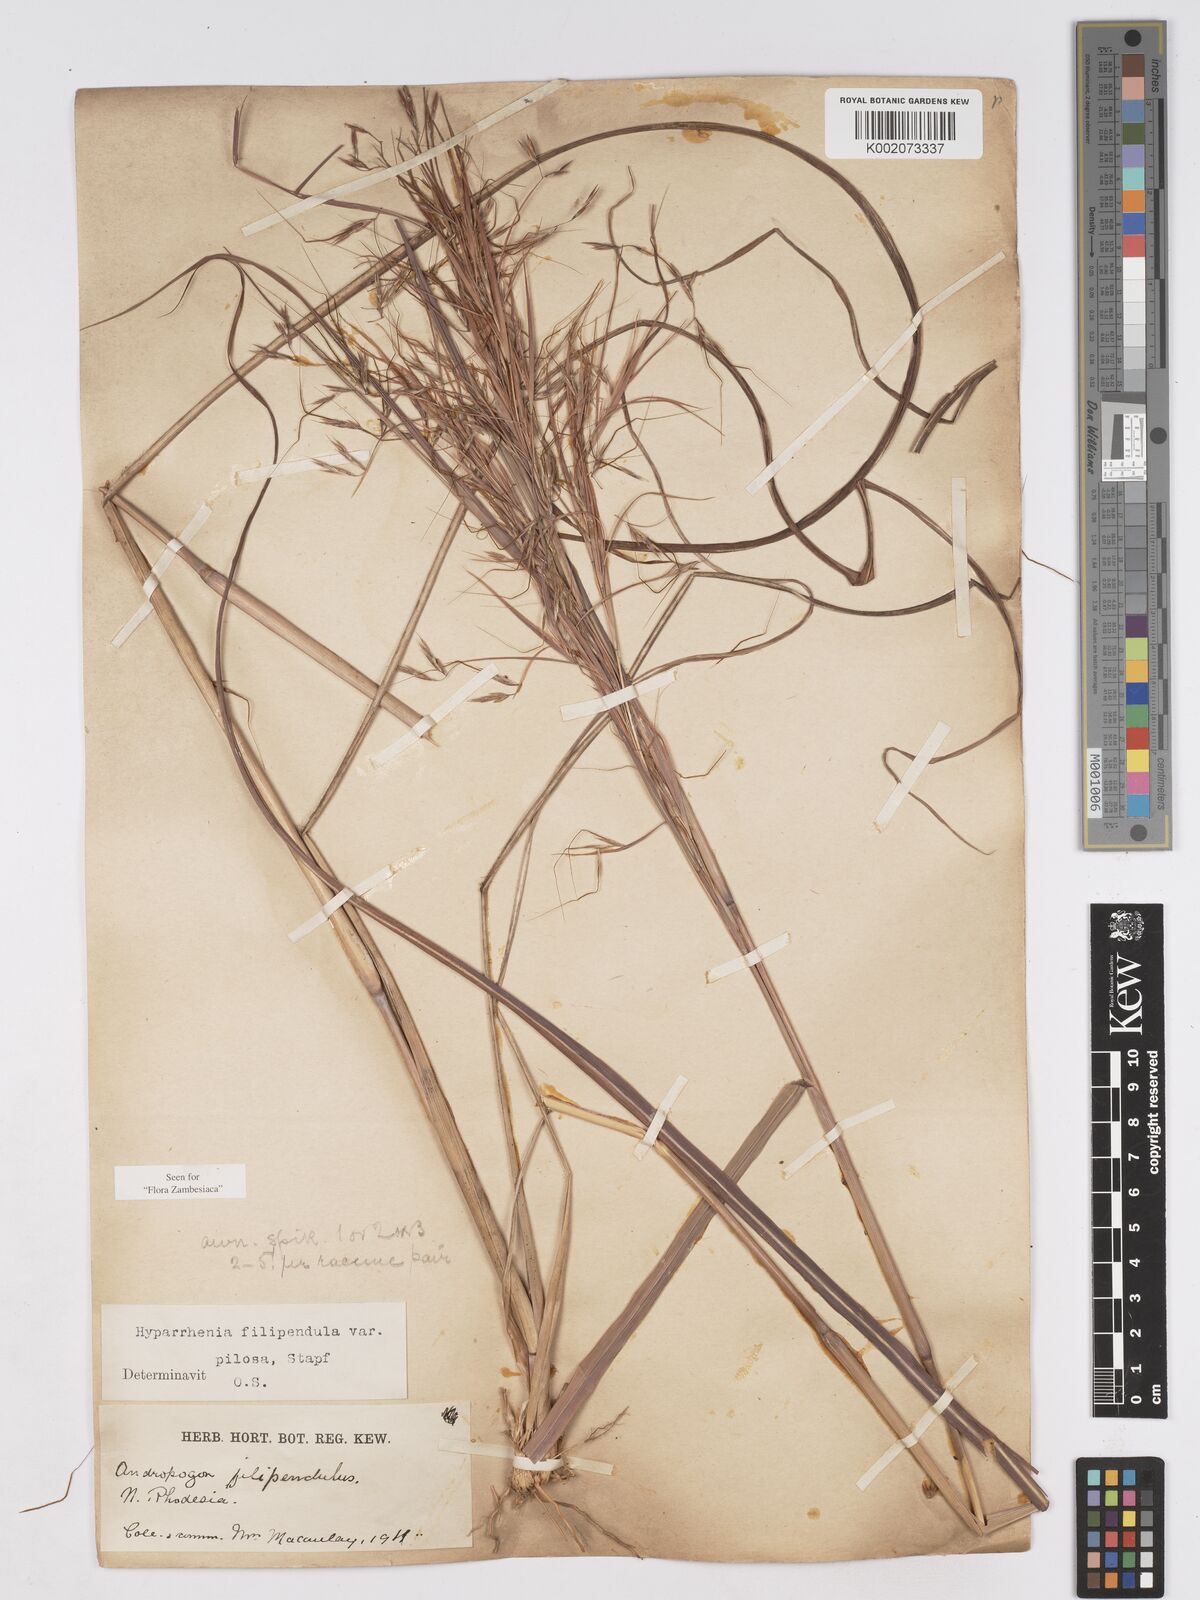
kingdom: Plantae
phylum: Tracheophyta
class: Liliopsida
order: Poales
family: Poaceae
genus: Hyparrhenia
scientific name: Hyparrhenia filipendula
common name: Tambookie grass
